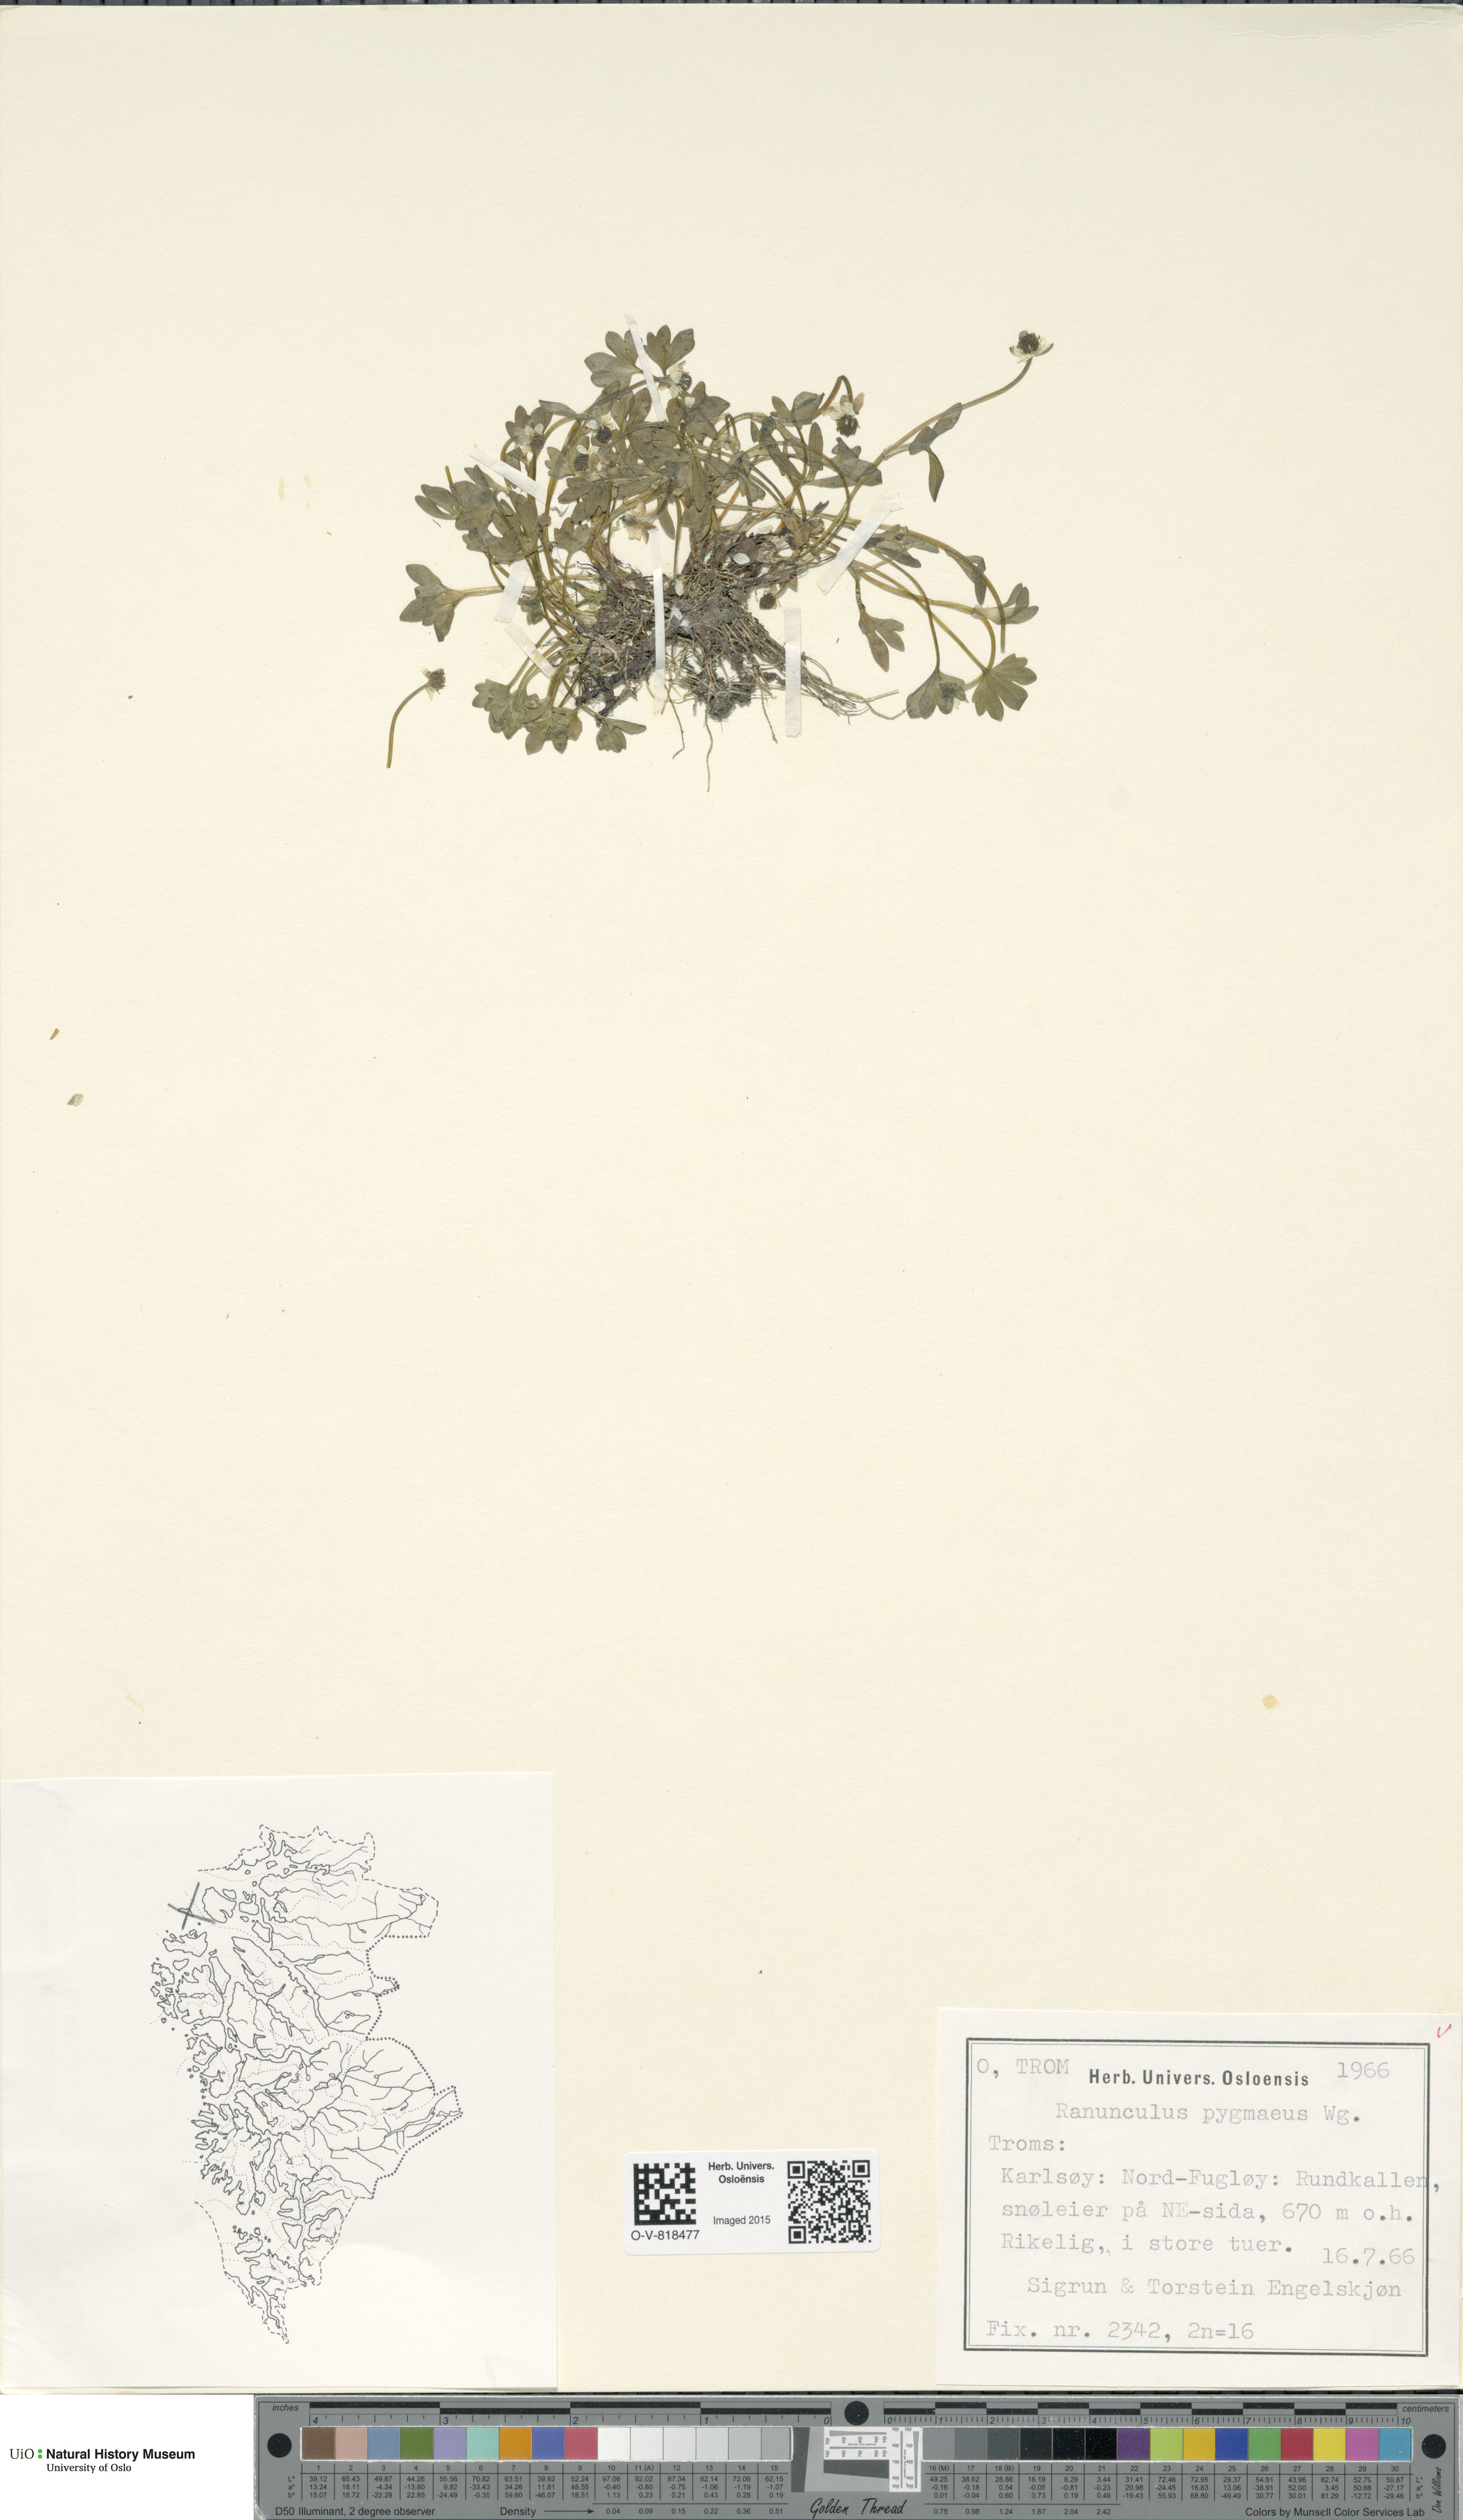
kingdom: Plantae
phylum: Tracheophyta
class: Magnoliopsida
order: Ranunculales
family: Ranunculaceae
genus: Ranunculus
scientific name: Ranunculus pygmaeus
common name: Dwarf buttercup
